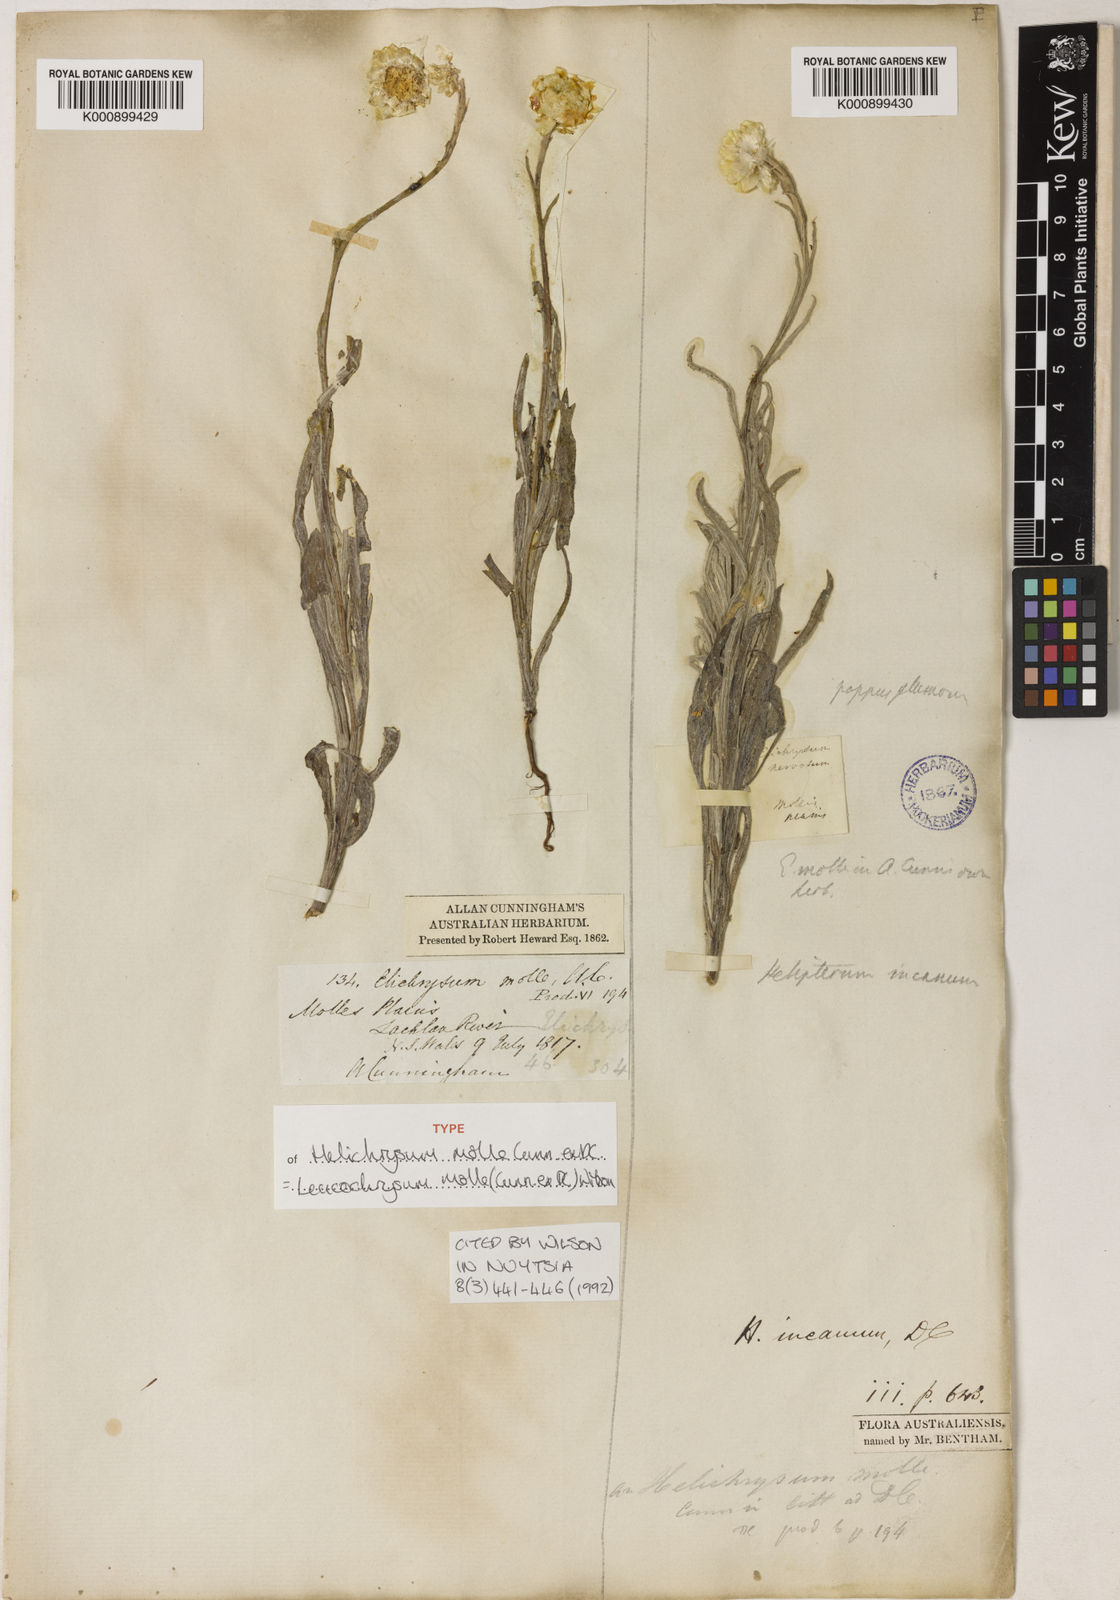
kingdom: Plantae
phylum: Tracheophyta
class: Magnoliopsida
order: Asterales
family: Asteraceae
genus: Leucochrysum
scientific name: Leucochrysum molle
